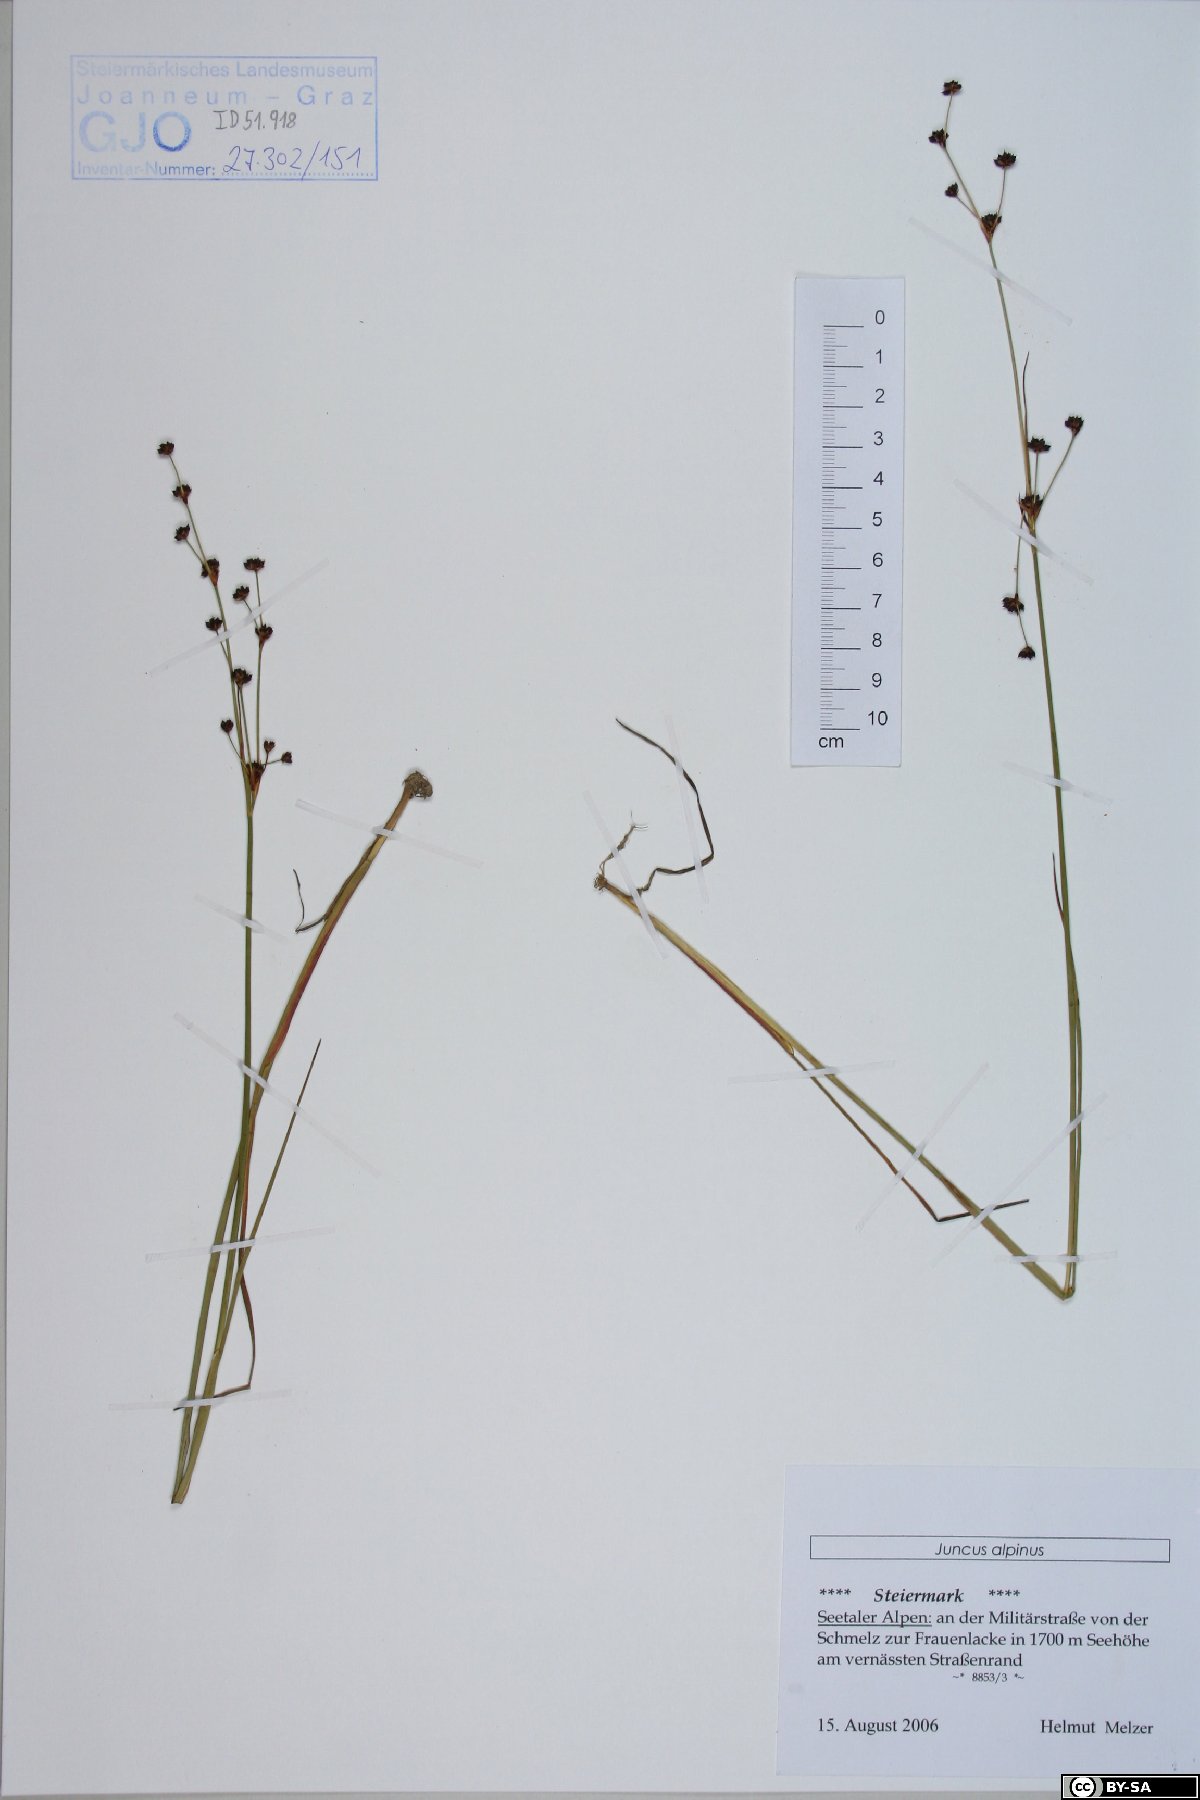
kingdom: Plantae
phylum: Tracheophyta
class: Liliopsida
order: Poales
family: Juncaceae
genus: Juncus
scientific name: Juncus alpinoarticulatus
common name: Alpine rush
